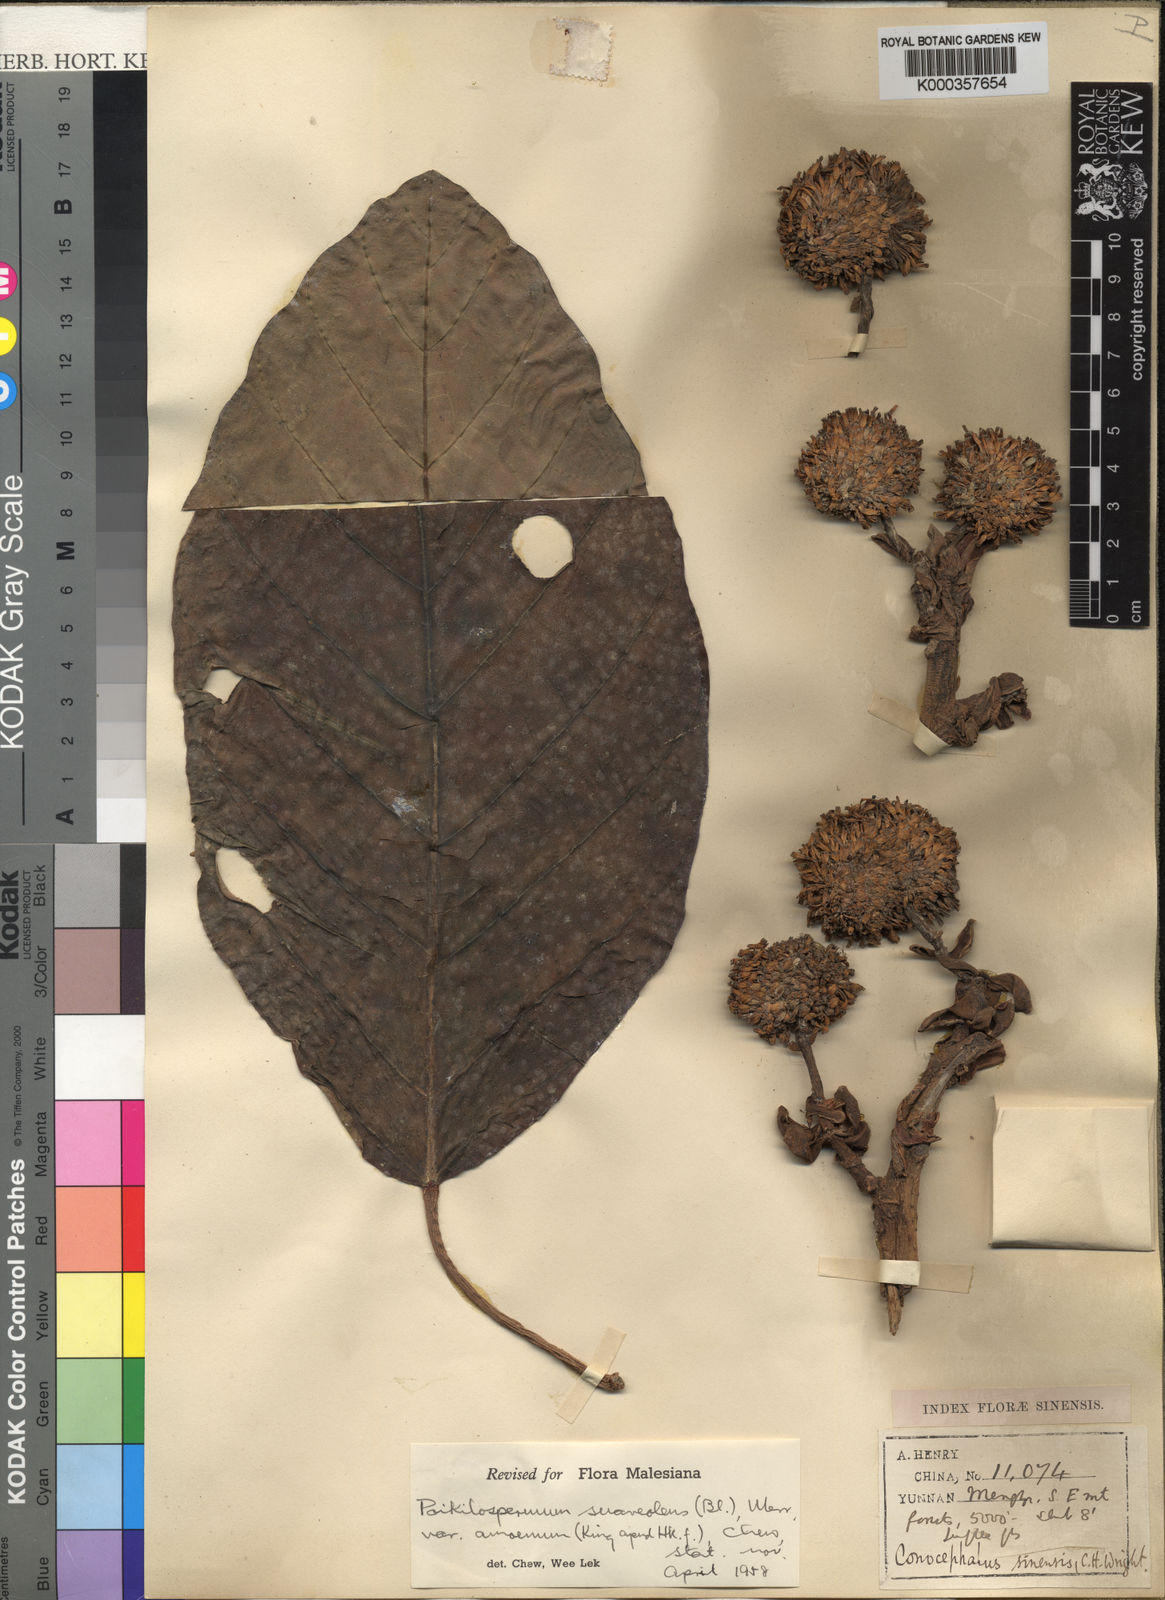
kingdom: Plantae
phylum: Tracheophyta
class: Magnoliopsida
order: Rosales
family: Urticaceae
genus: Poikilospermum
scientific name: Poikilospermum suaveolens
